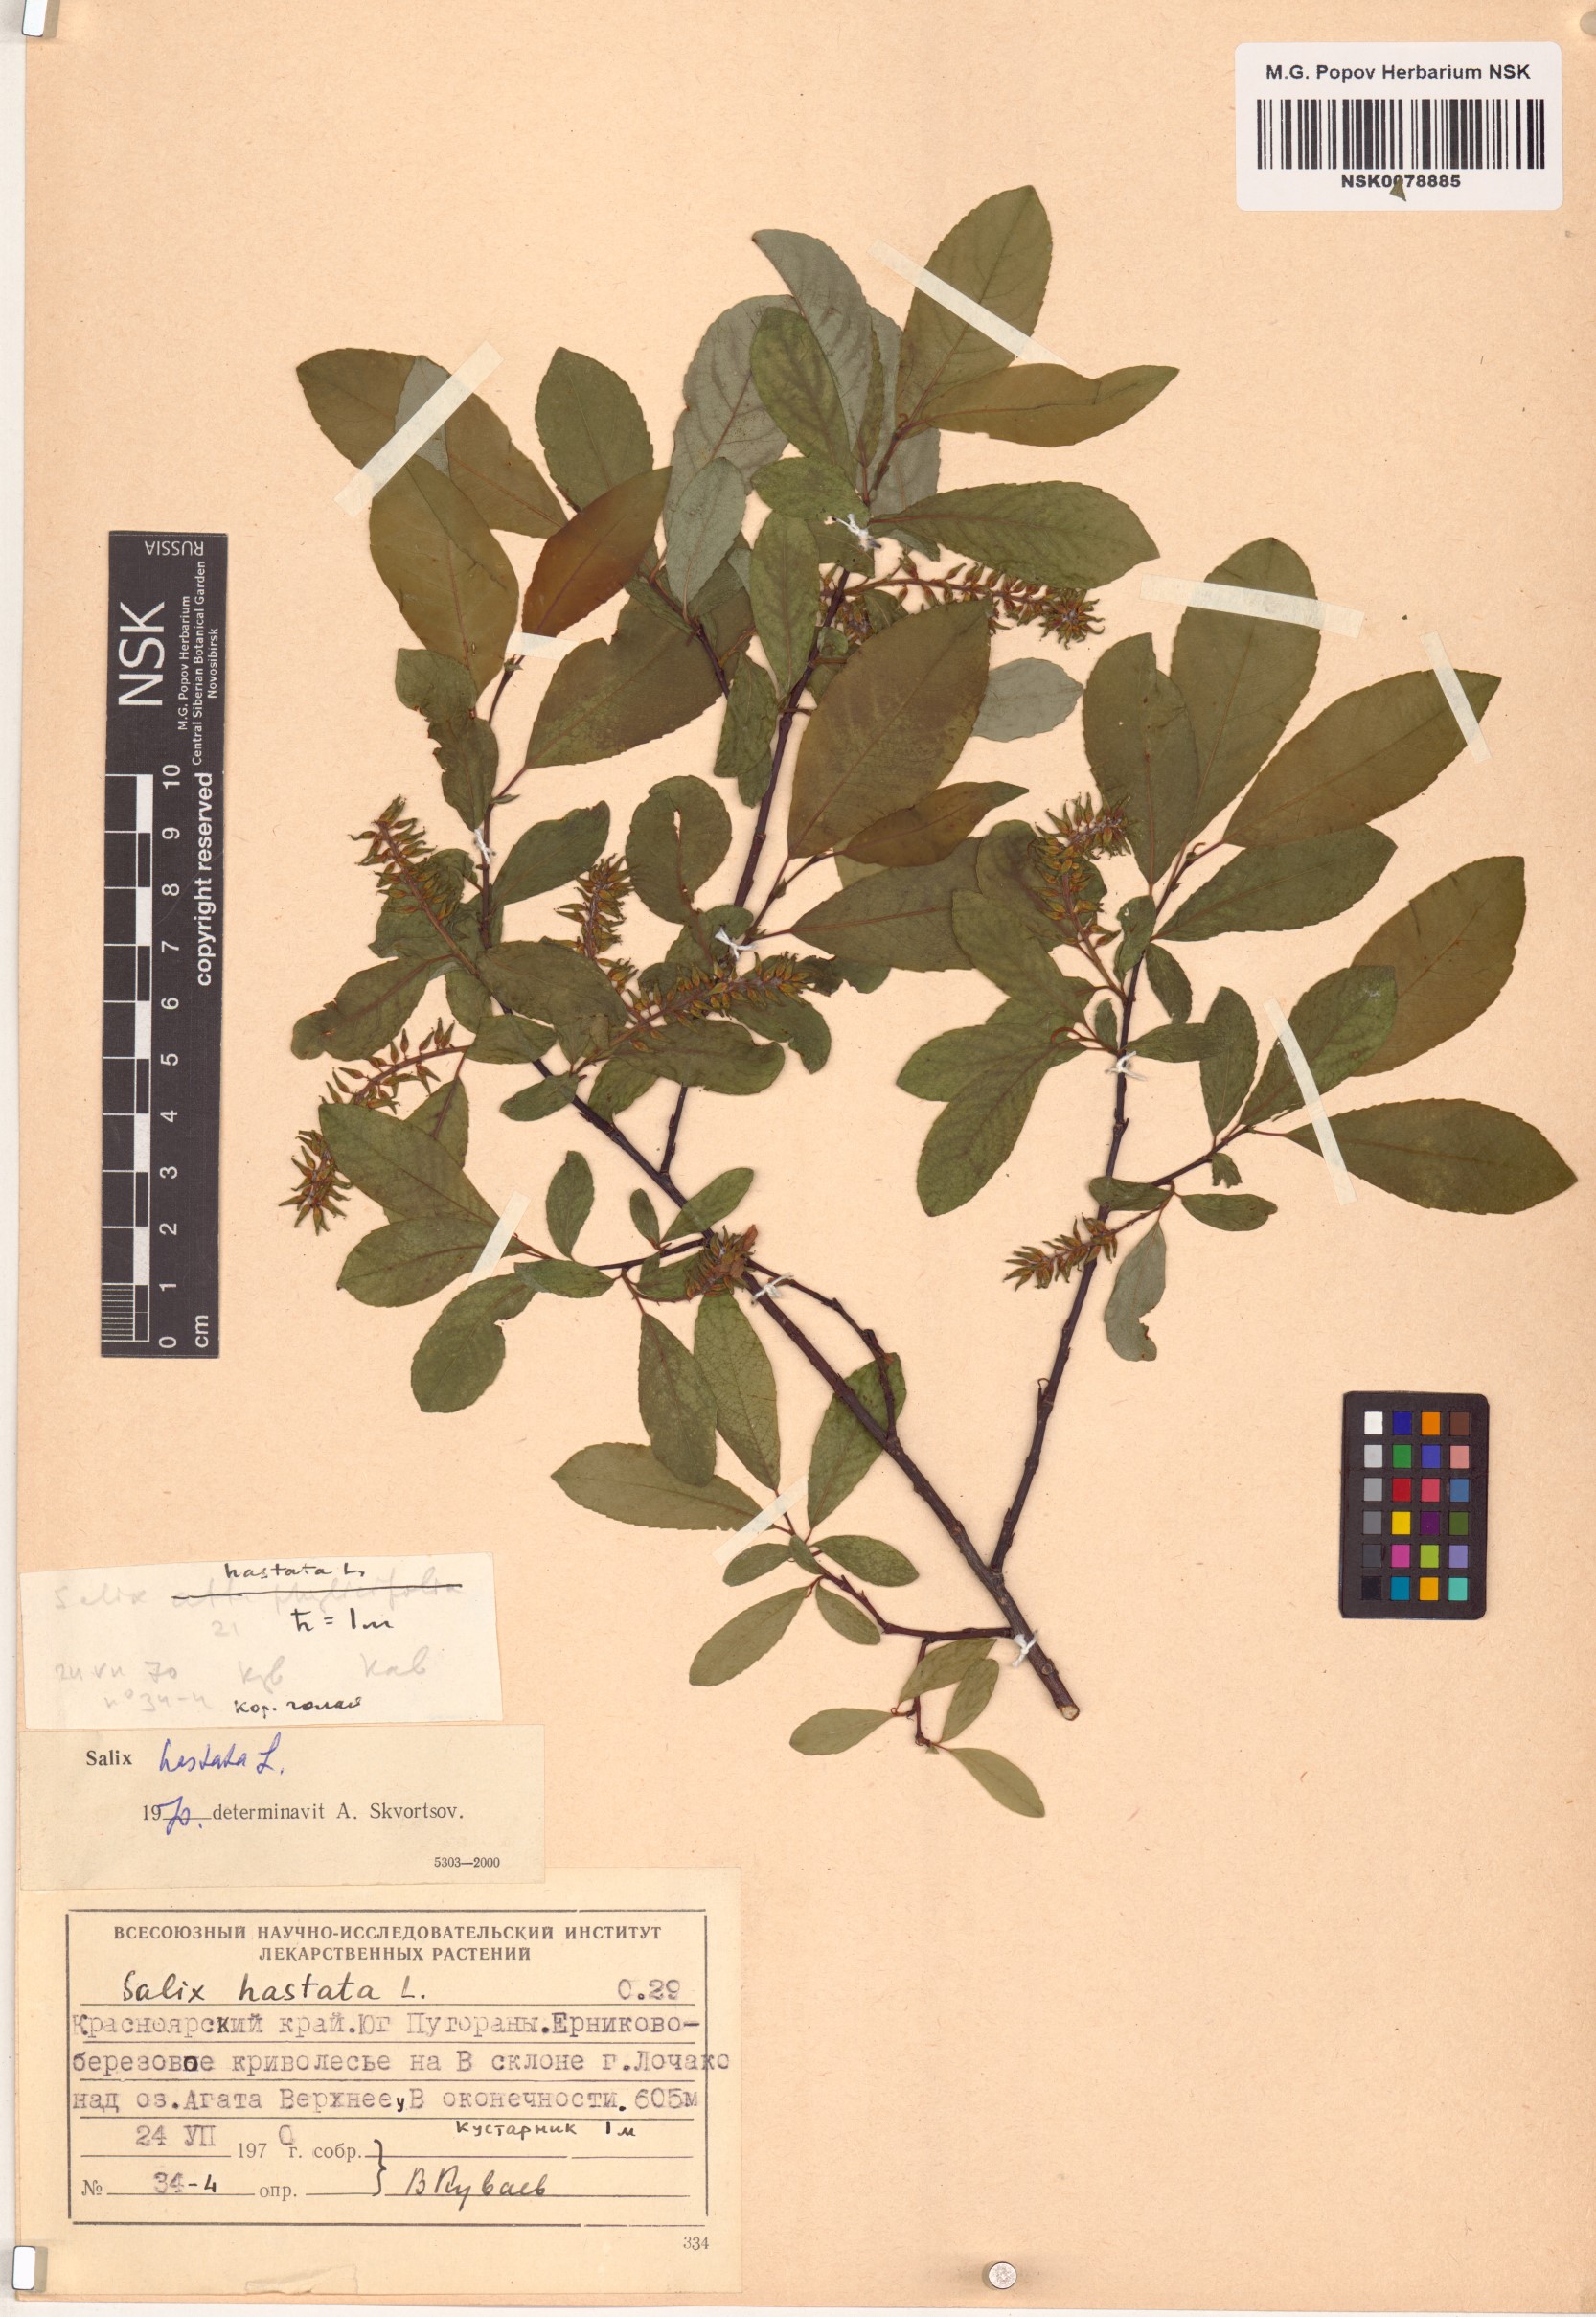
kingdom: Plantae
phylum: Tracheophyta
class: Magnoliopsida
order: Malpighiales
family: Salicaceae
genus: Salix
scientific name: Salix hastata
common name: Halberd willow
